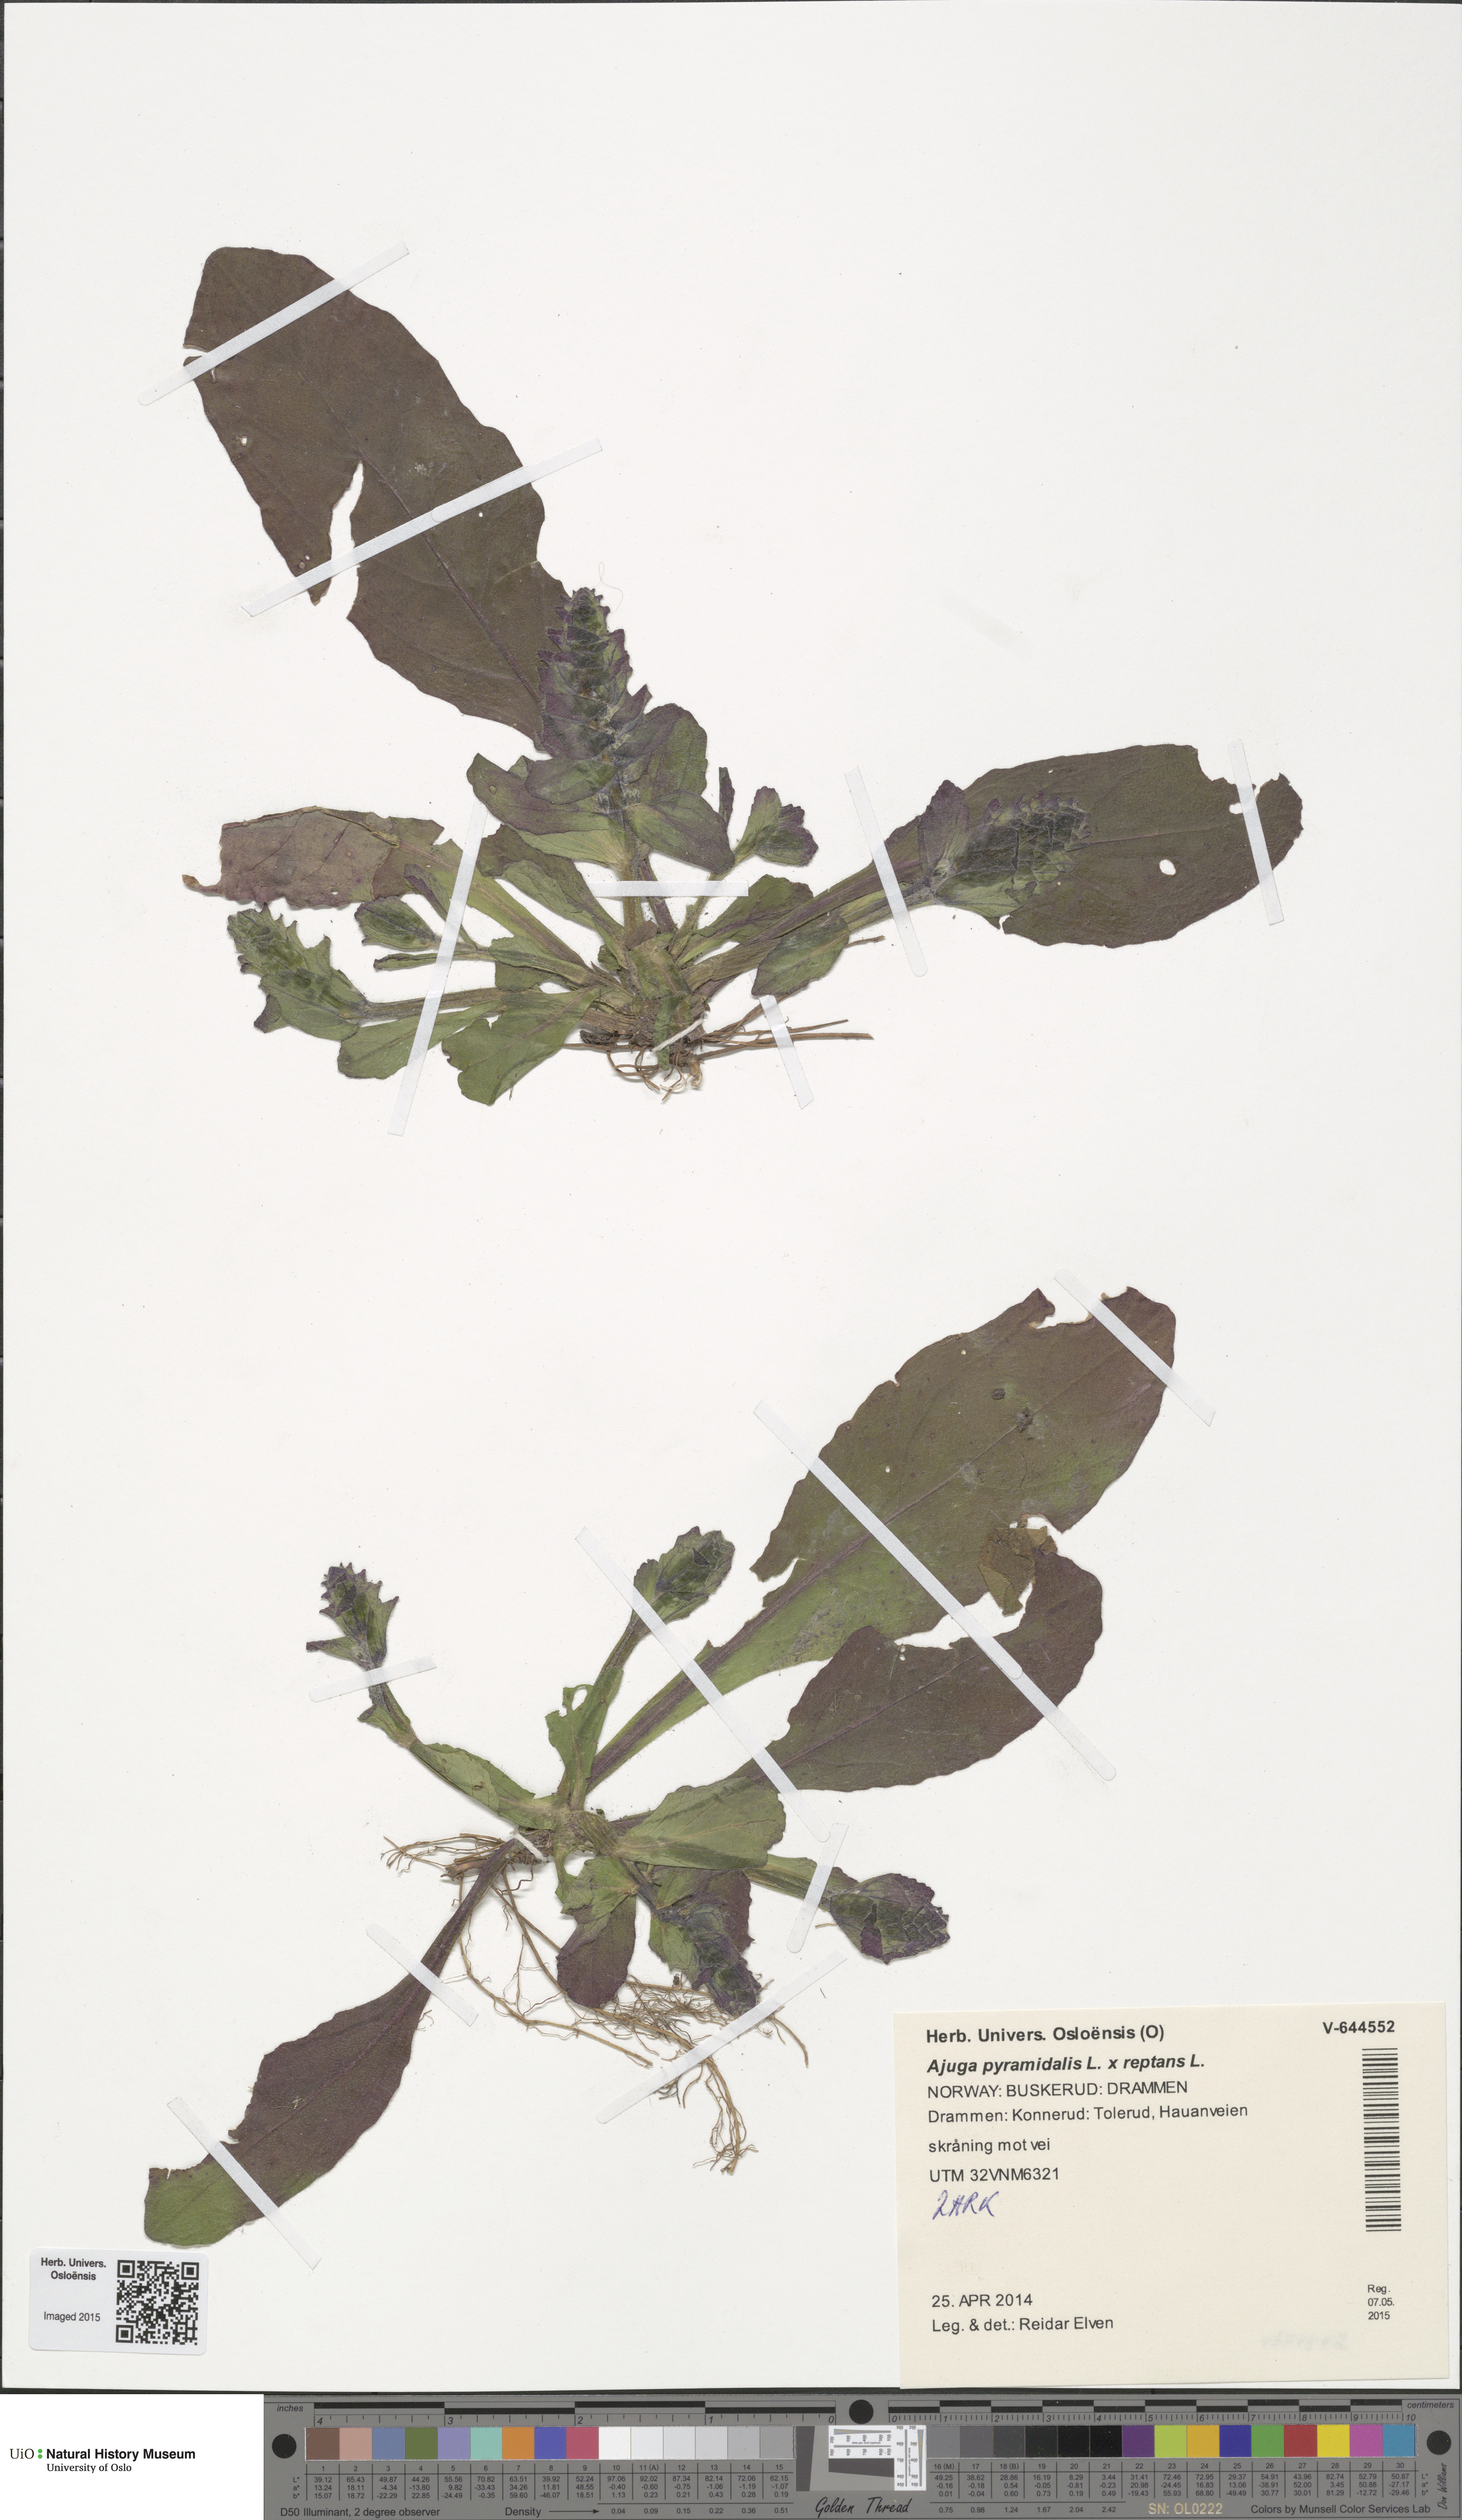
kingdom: Plantae
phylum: Tracheophyta
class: Magnoliopsida
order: Lamiales
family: Lamiaceae
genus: Ajuga
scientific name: Ajuga
